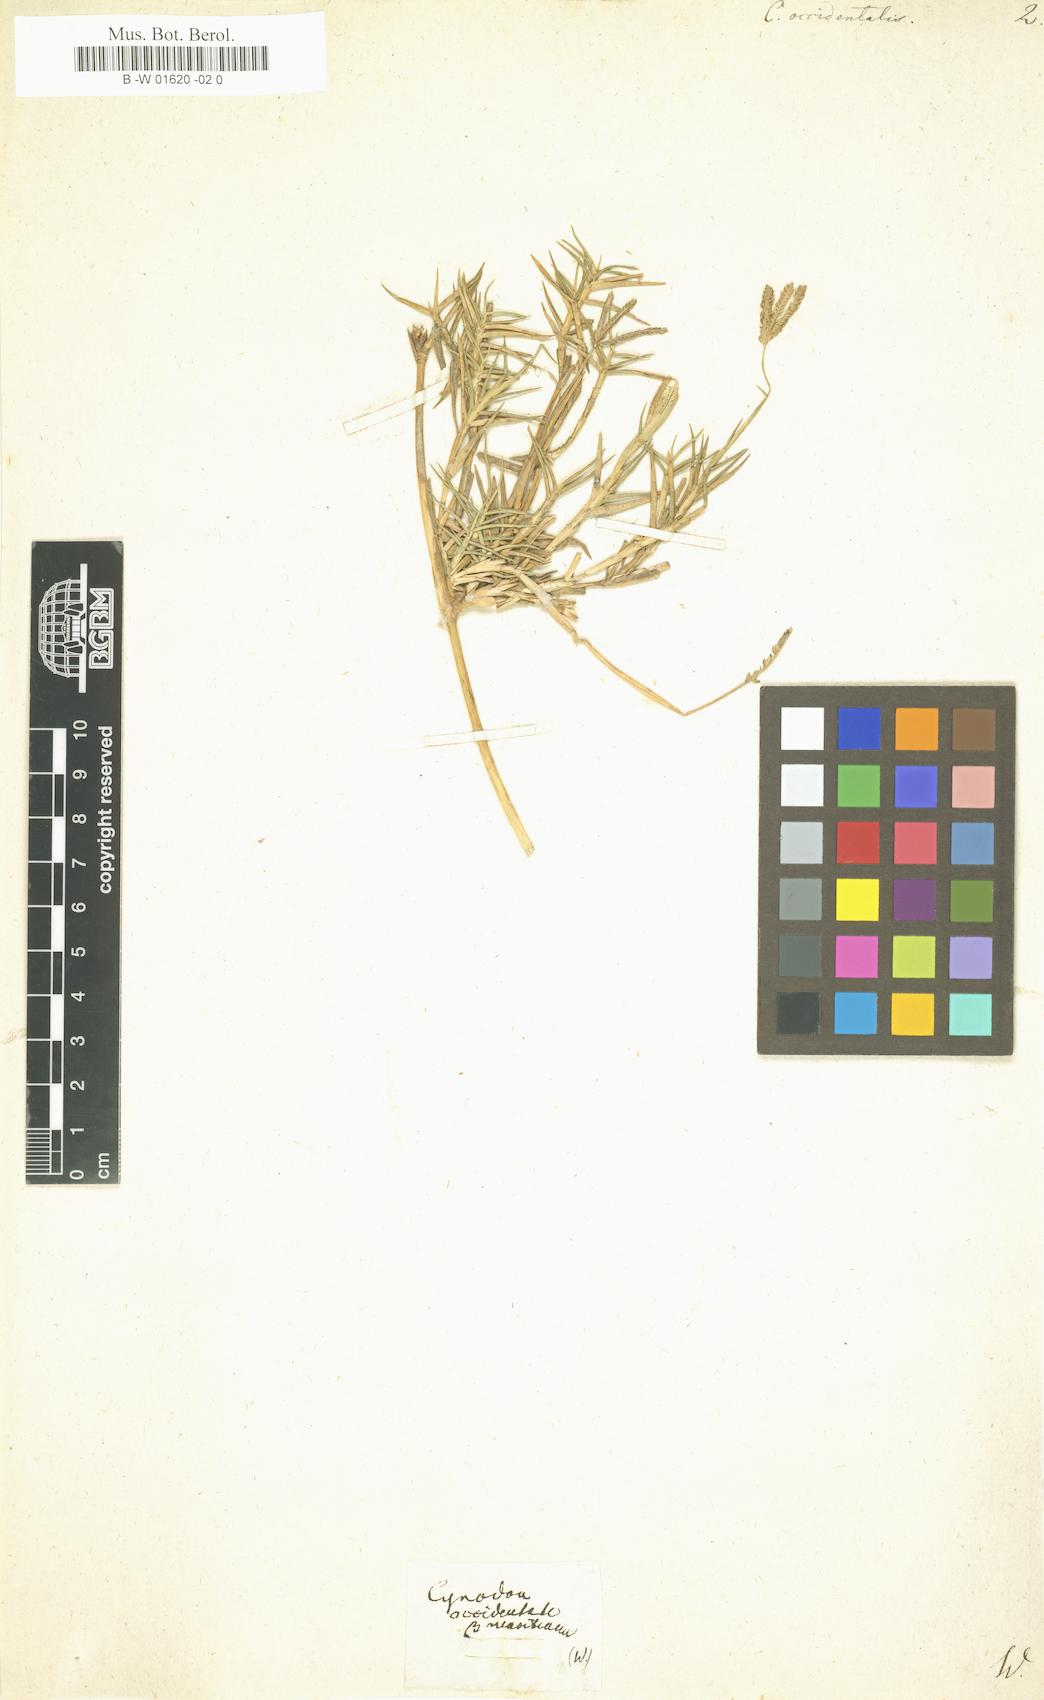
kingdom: Plantae
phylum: Tracheophyta
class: Liliopsida
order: Poales
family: Poaceae
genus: Cynodon
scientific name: Cynodon dactylon
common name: Bermuda grass
